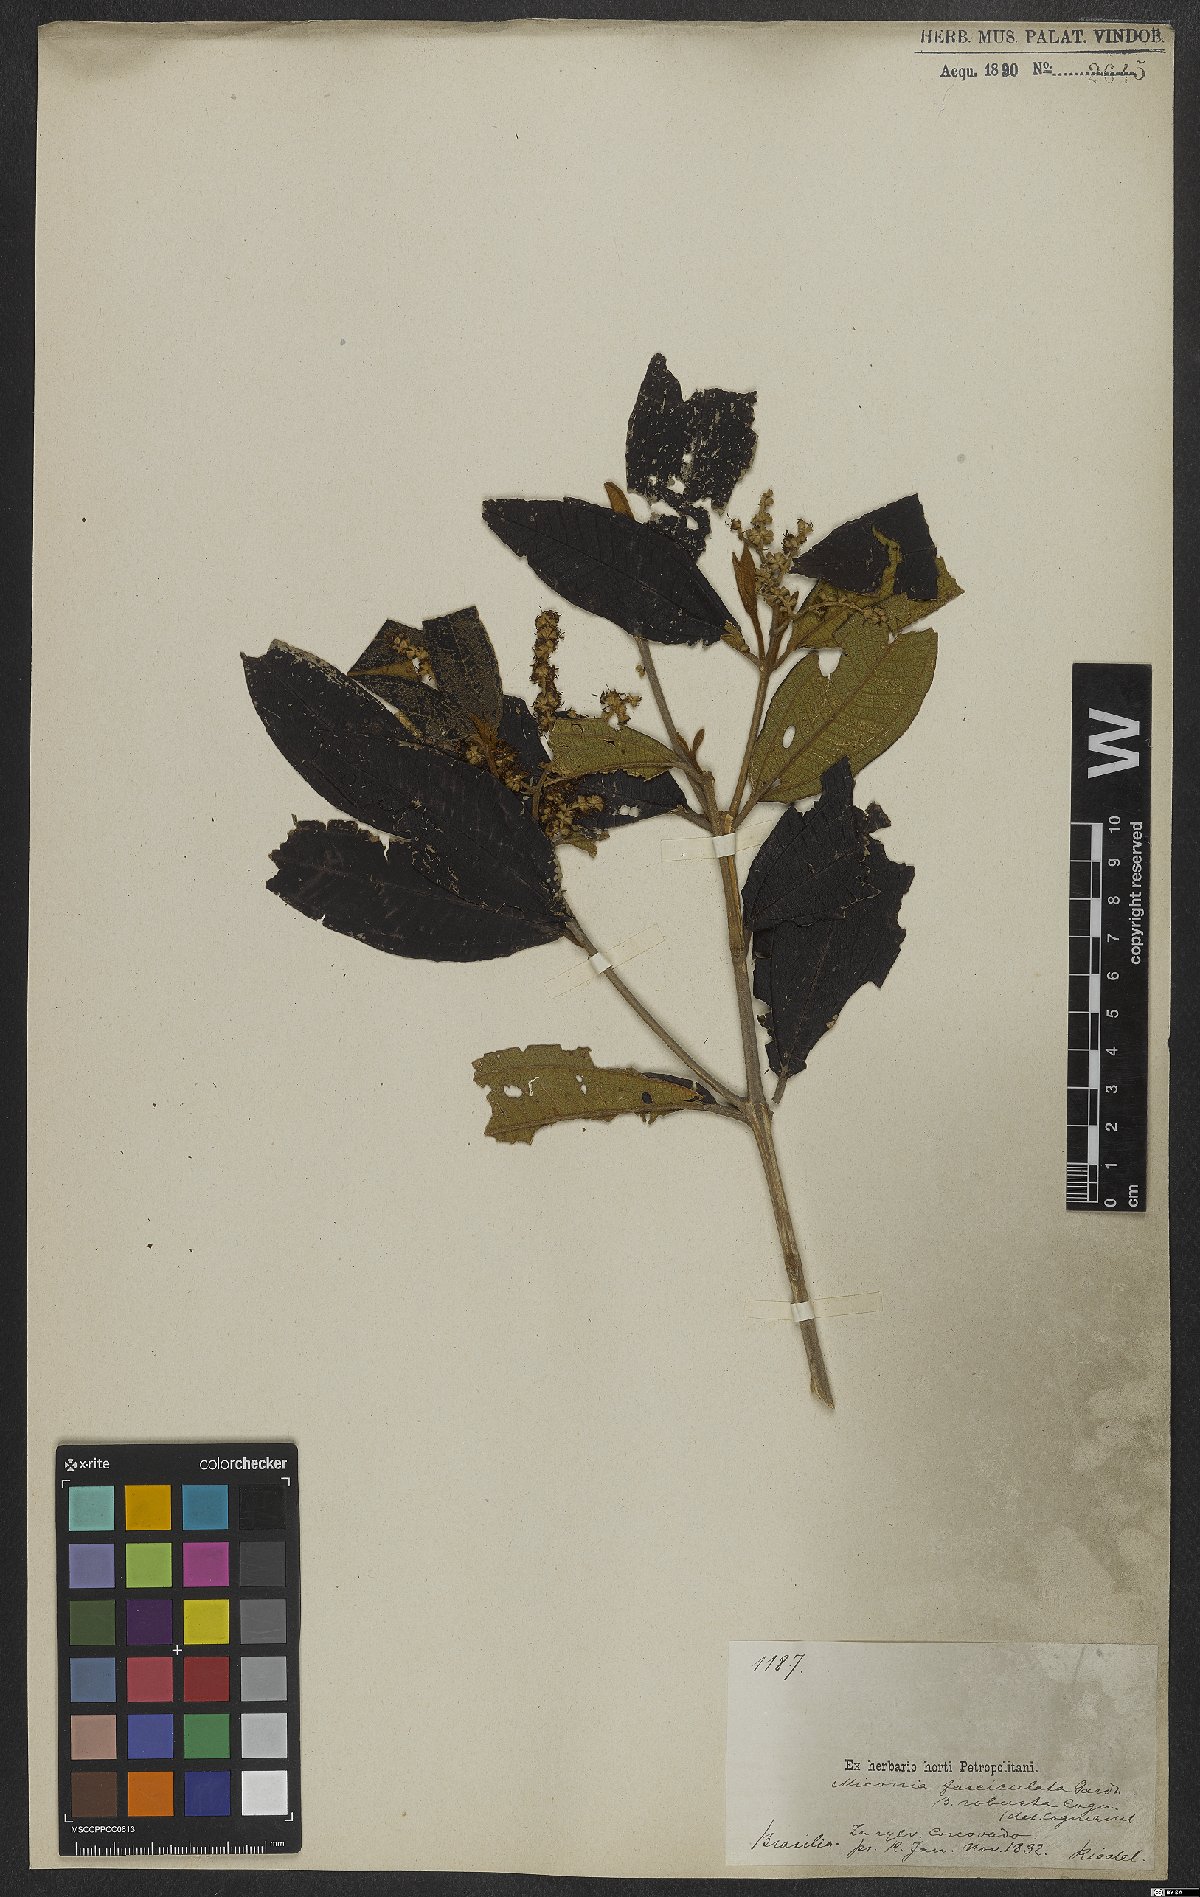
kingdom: Plantae
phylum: Tracheophyta
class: Magnoliopsida
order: Myrtales
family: Melastomataceae
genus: Miconia
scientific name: Miconia fasciculata
